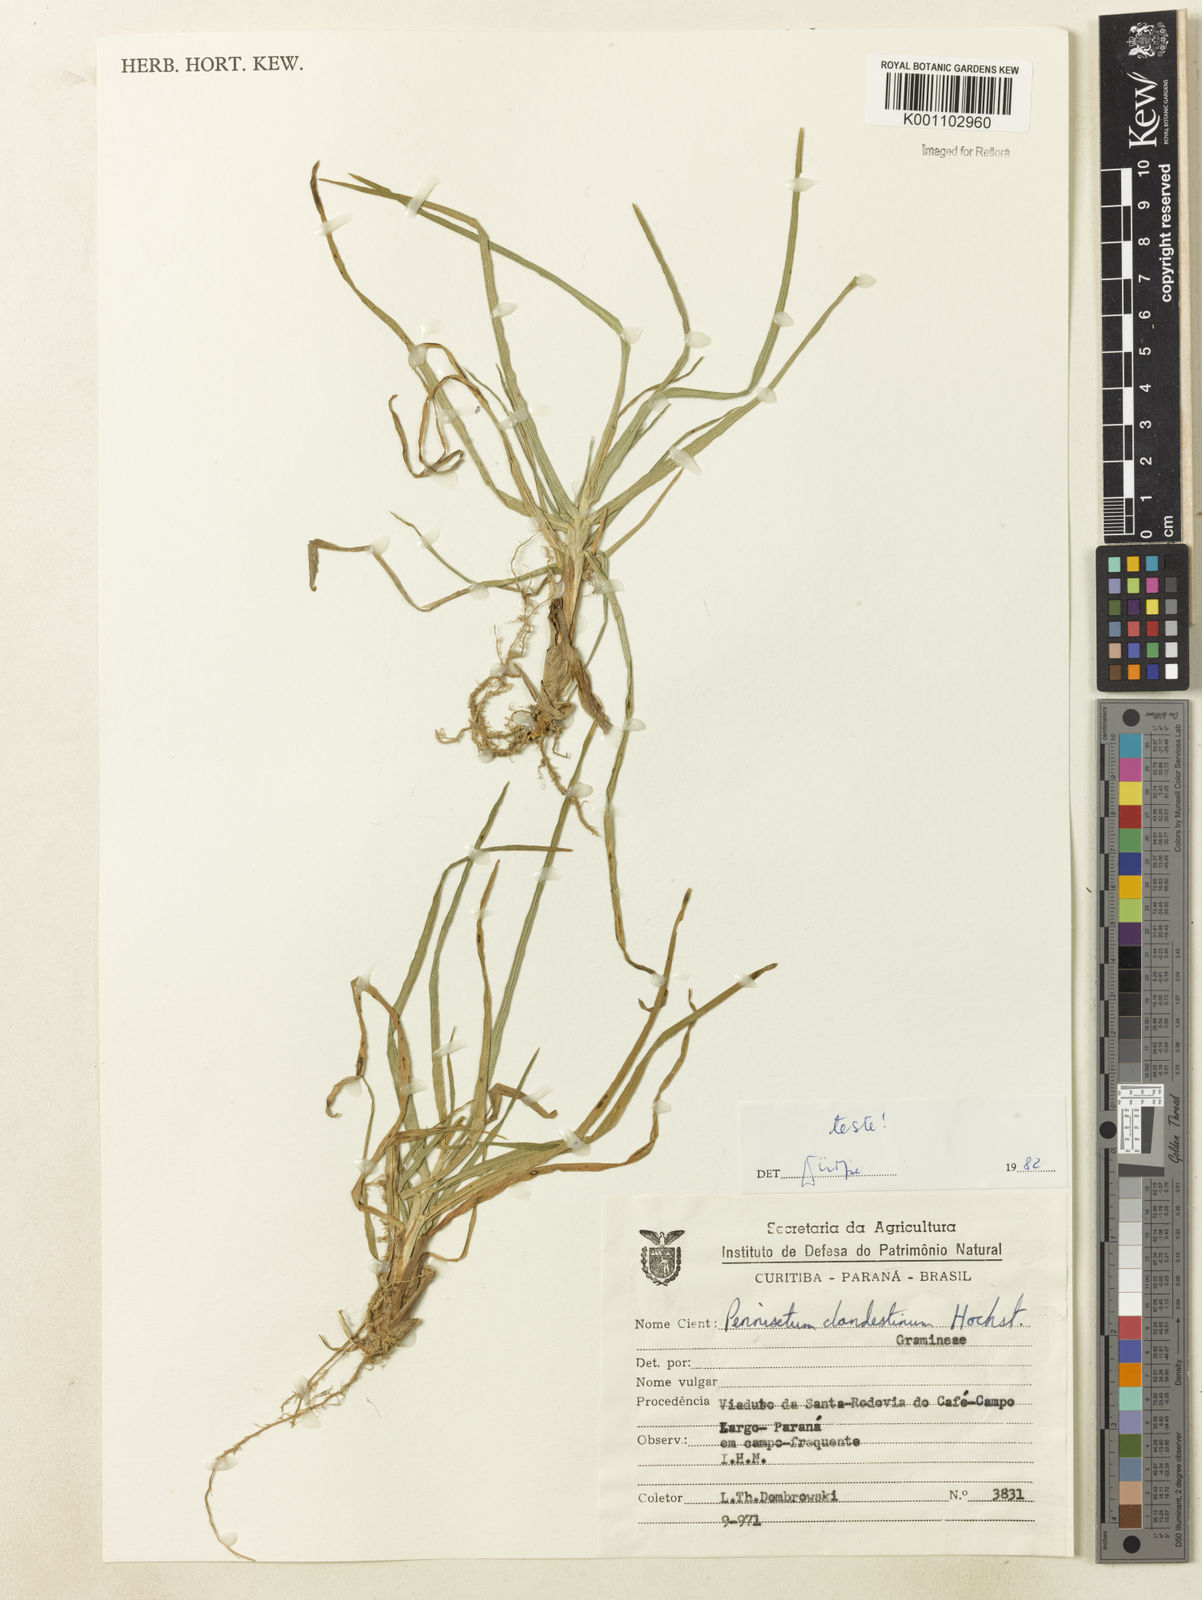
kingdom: Plantae
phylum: Tracheophyta
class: Liliopsida
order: Poales
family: Poaceae
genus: Cenchrus
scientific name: Cenchrus clandestinus
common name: Kikuyugrass
